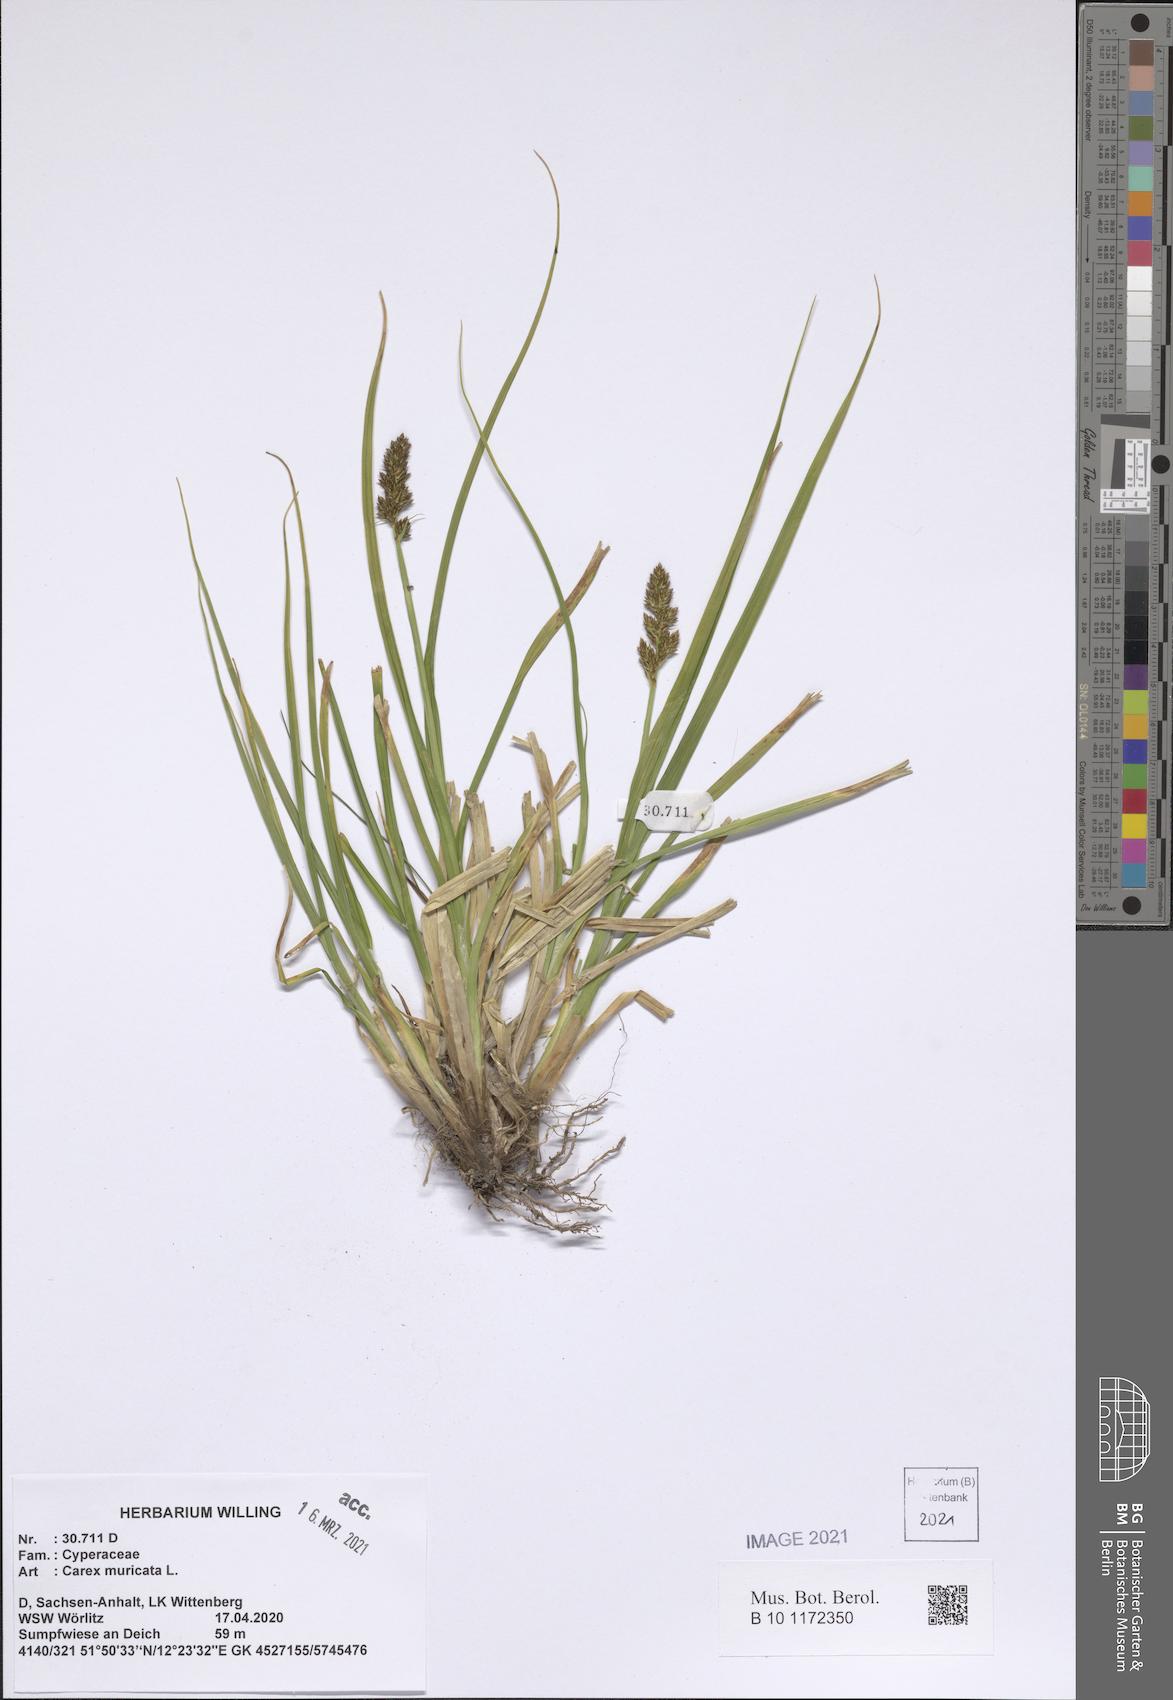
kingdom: Plantae
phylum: Tracheophyta
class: Liliopsida
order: Poales
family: Cyperaceae
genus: Carex
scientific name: Carex muricata
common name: Rough sedge
